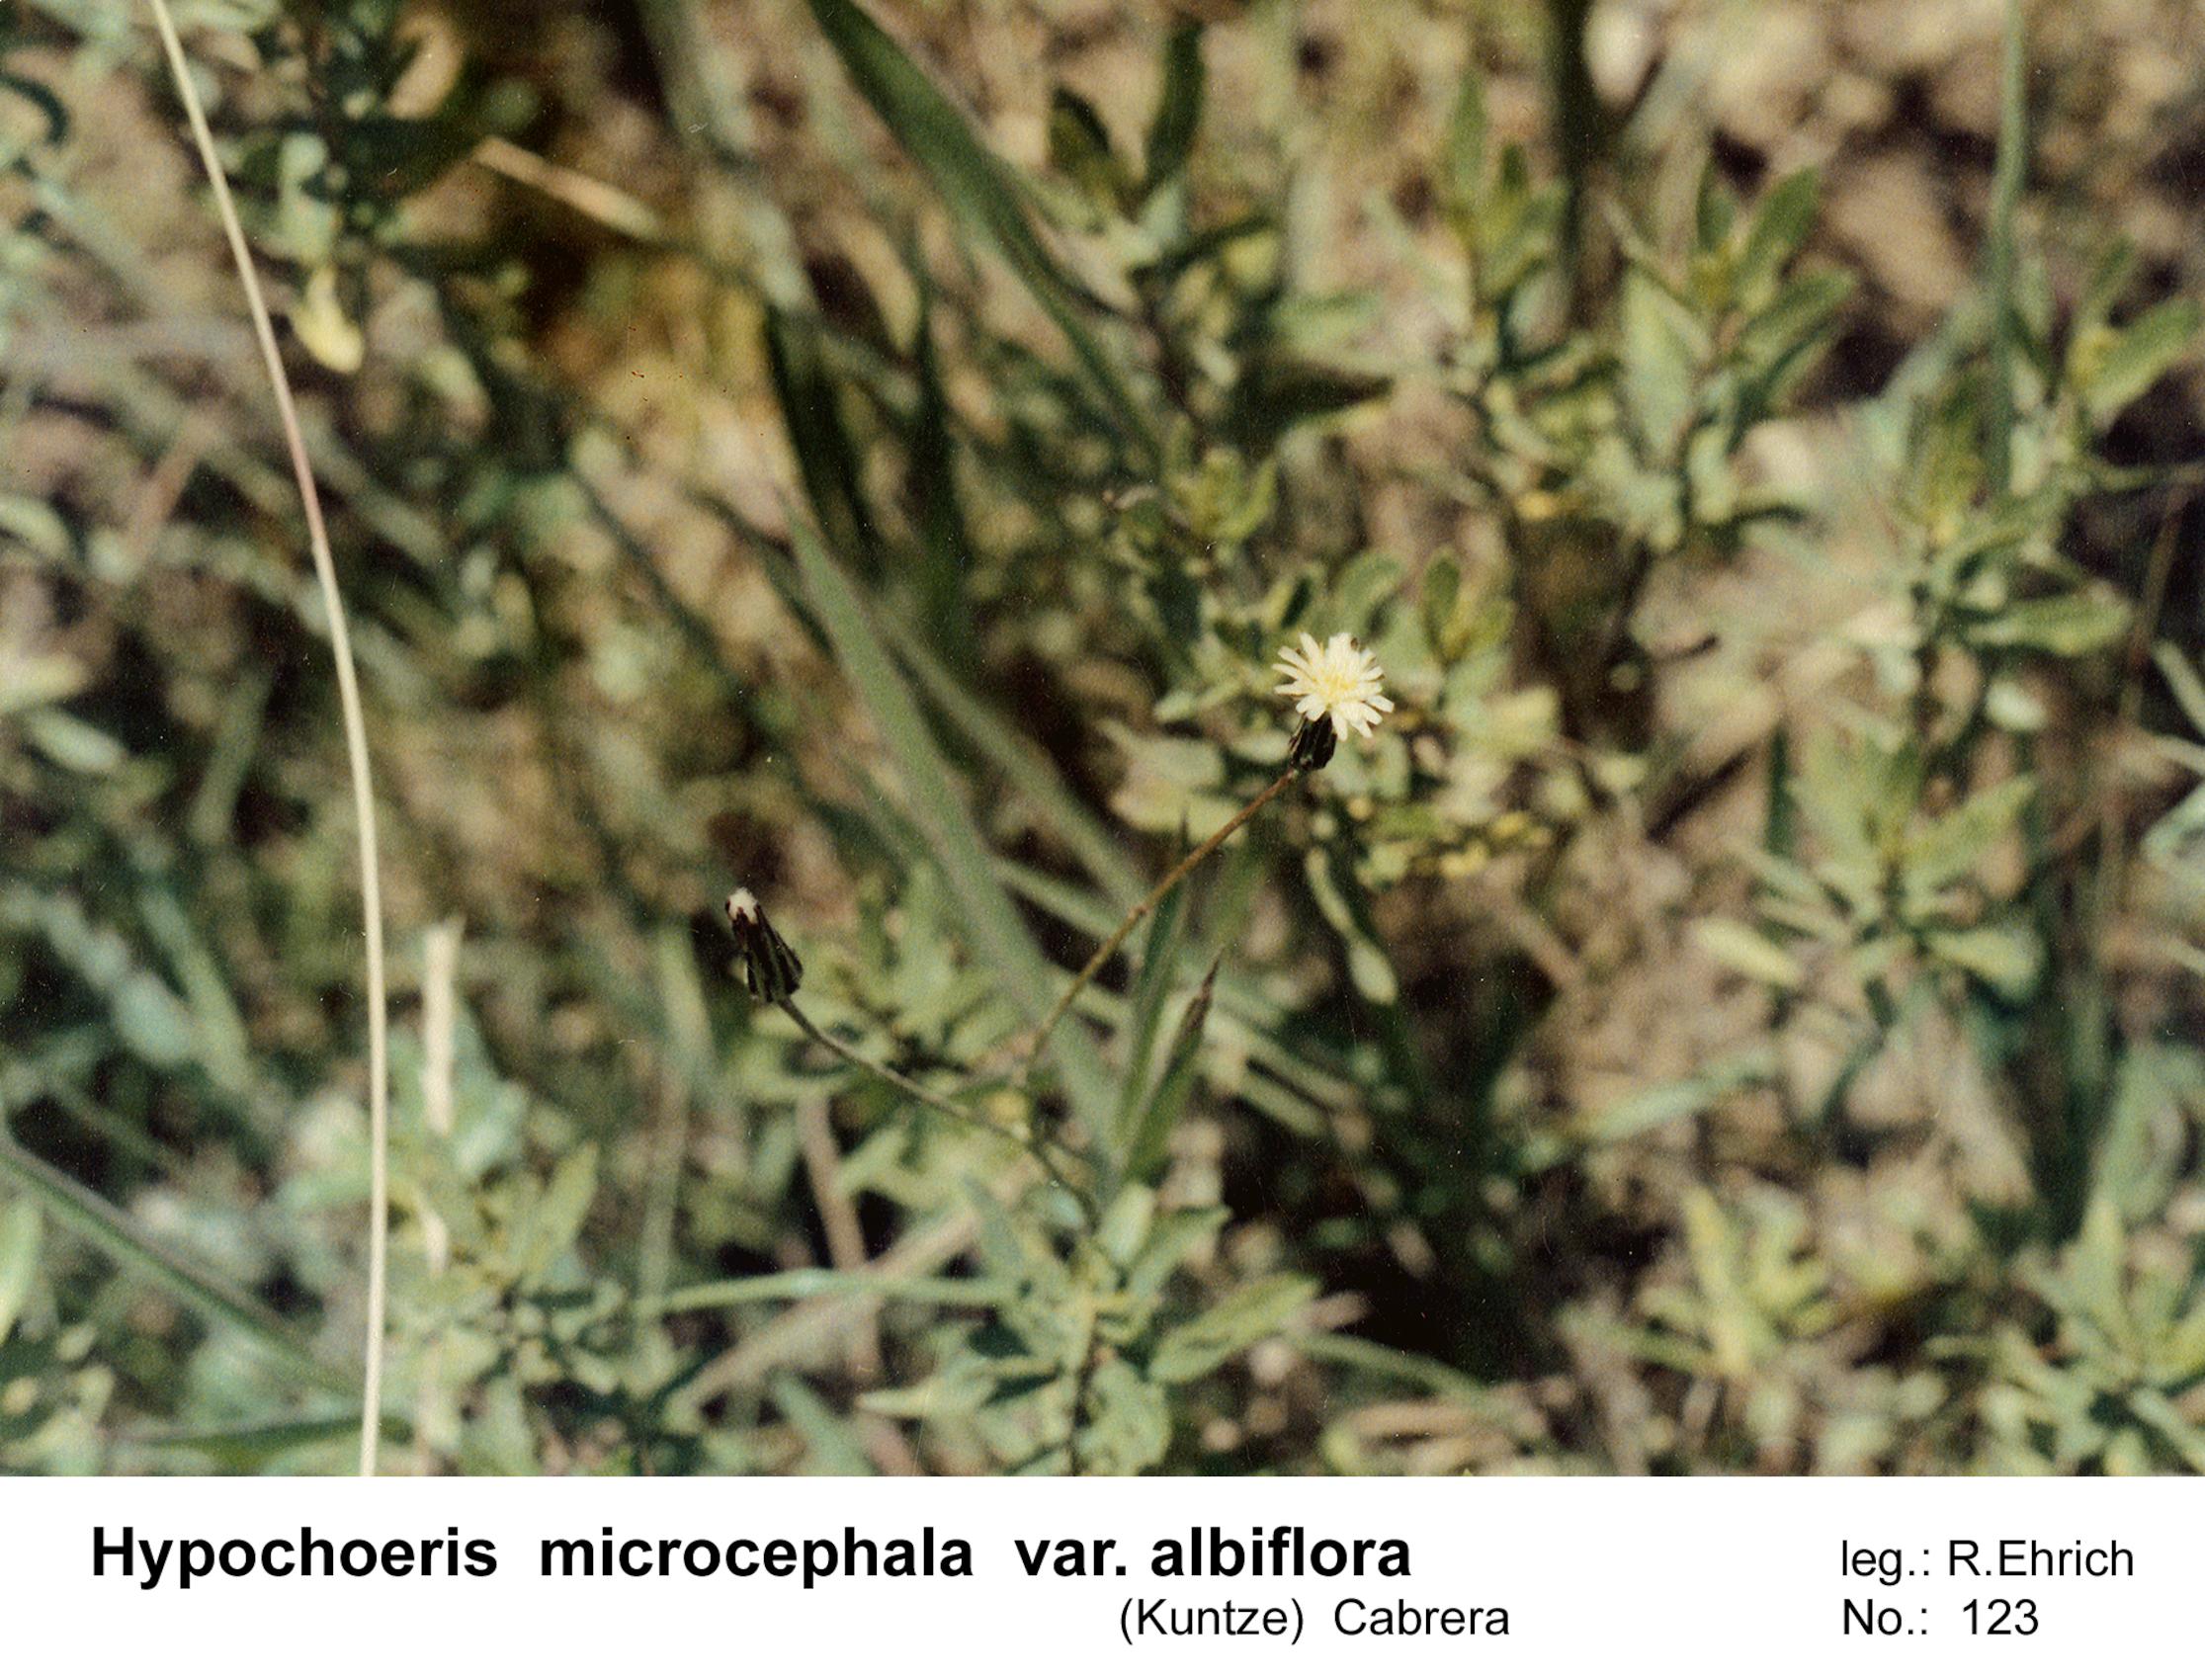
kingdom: Plantae
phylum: Tracheophyta
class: Magnoliopsida
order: Asterales
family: Asteraceae
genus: Hypochaeris
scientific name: Hypochaeris albiflora
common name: White flatweed
